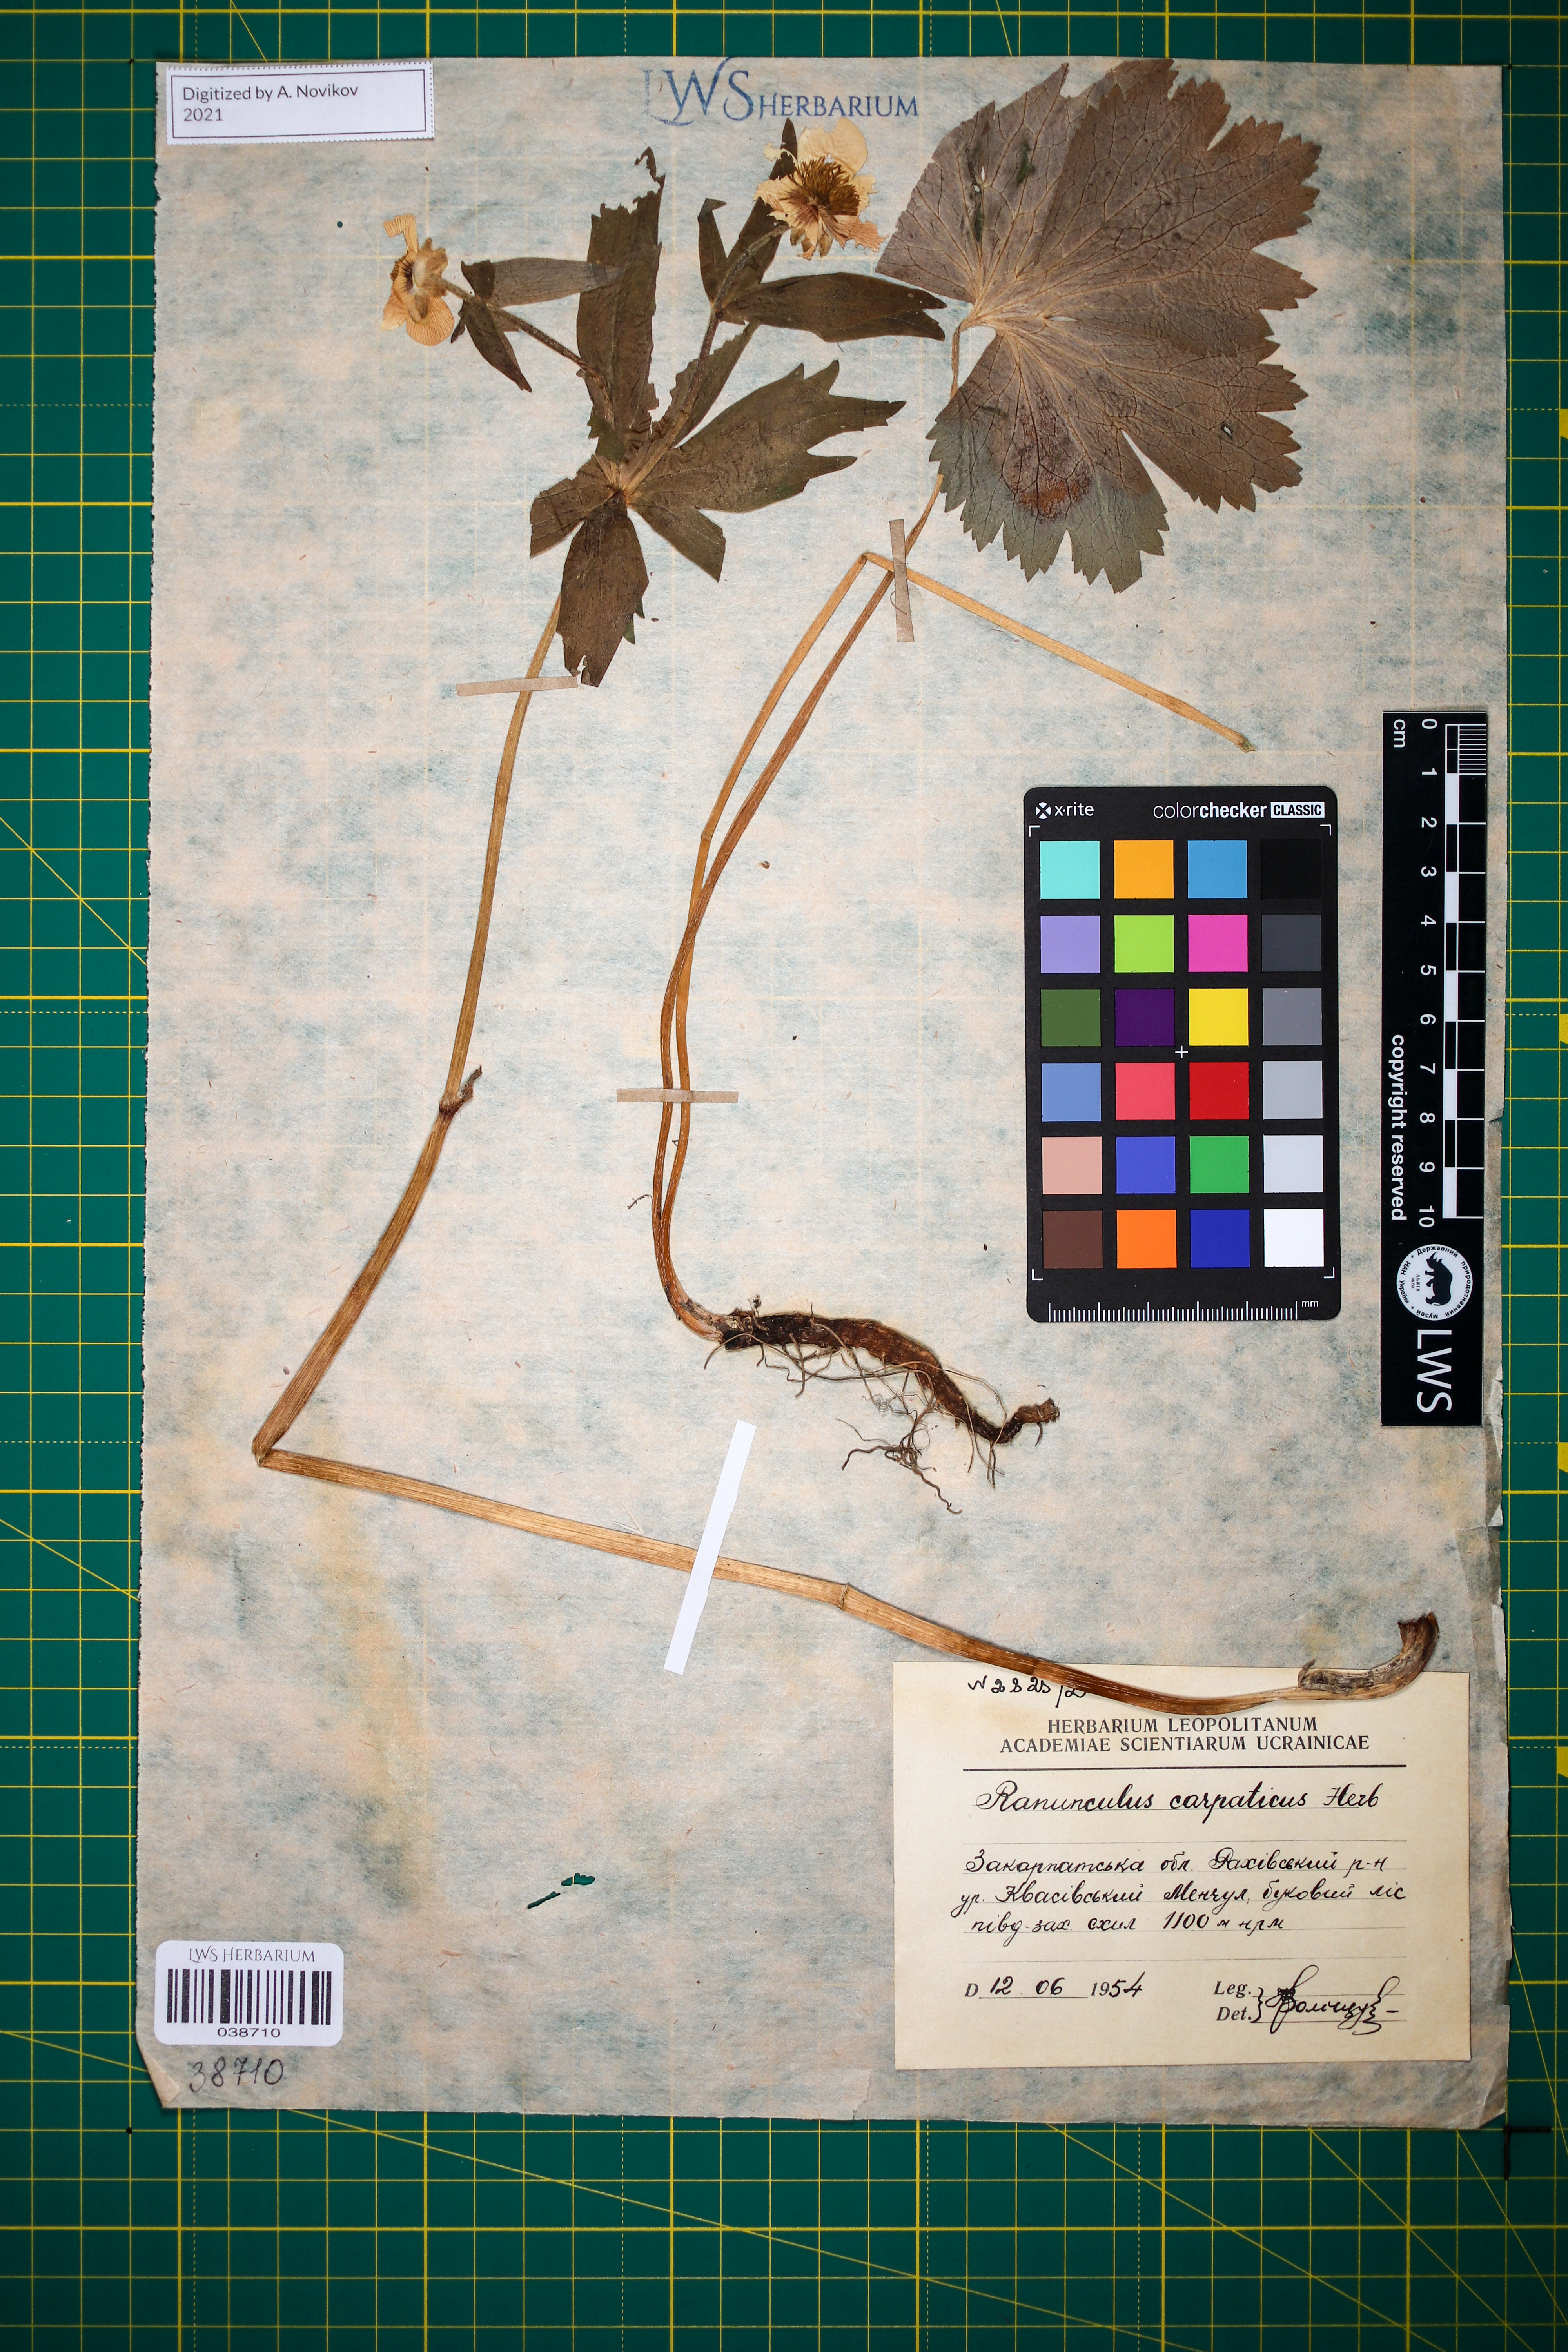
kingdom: Plantae
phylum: Tracheophyta
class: Magnoliopsida
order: Ranunculales
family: Ranunculaceae
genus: Ranunculus
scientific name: Ranunculus carpaticus
